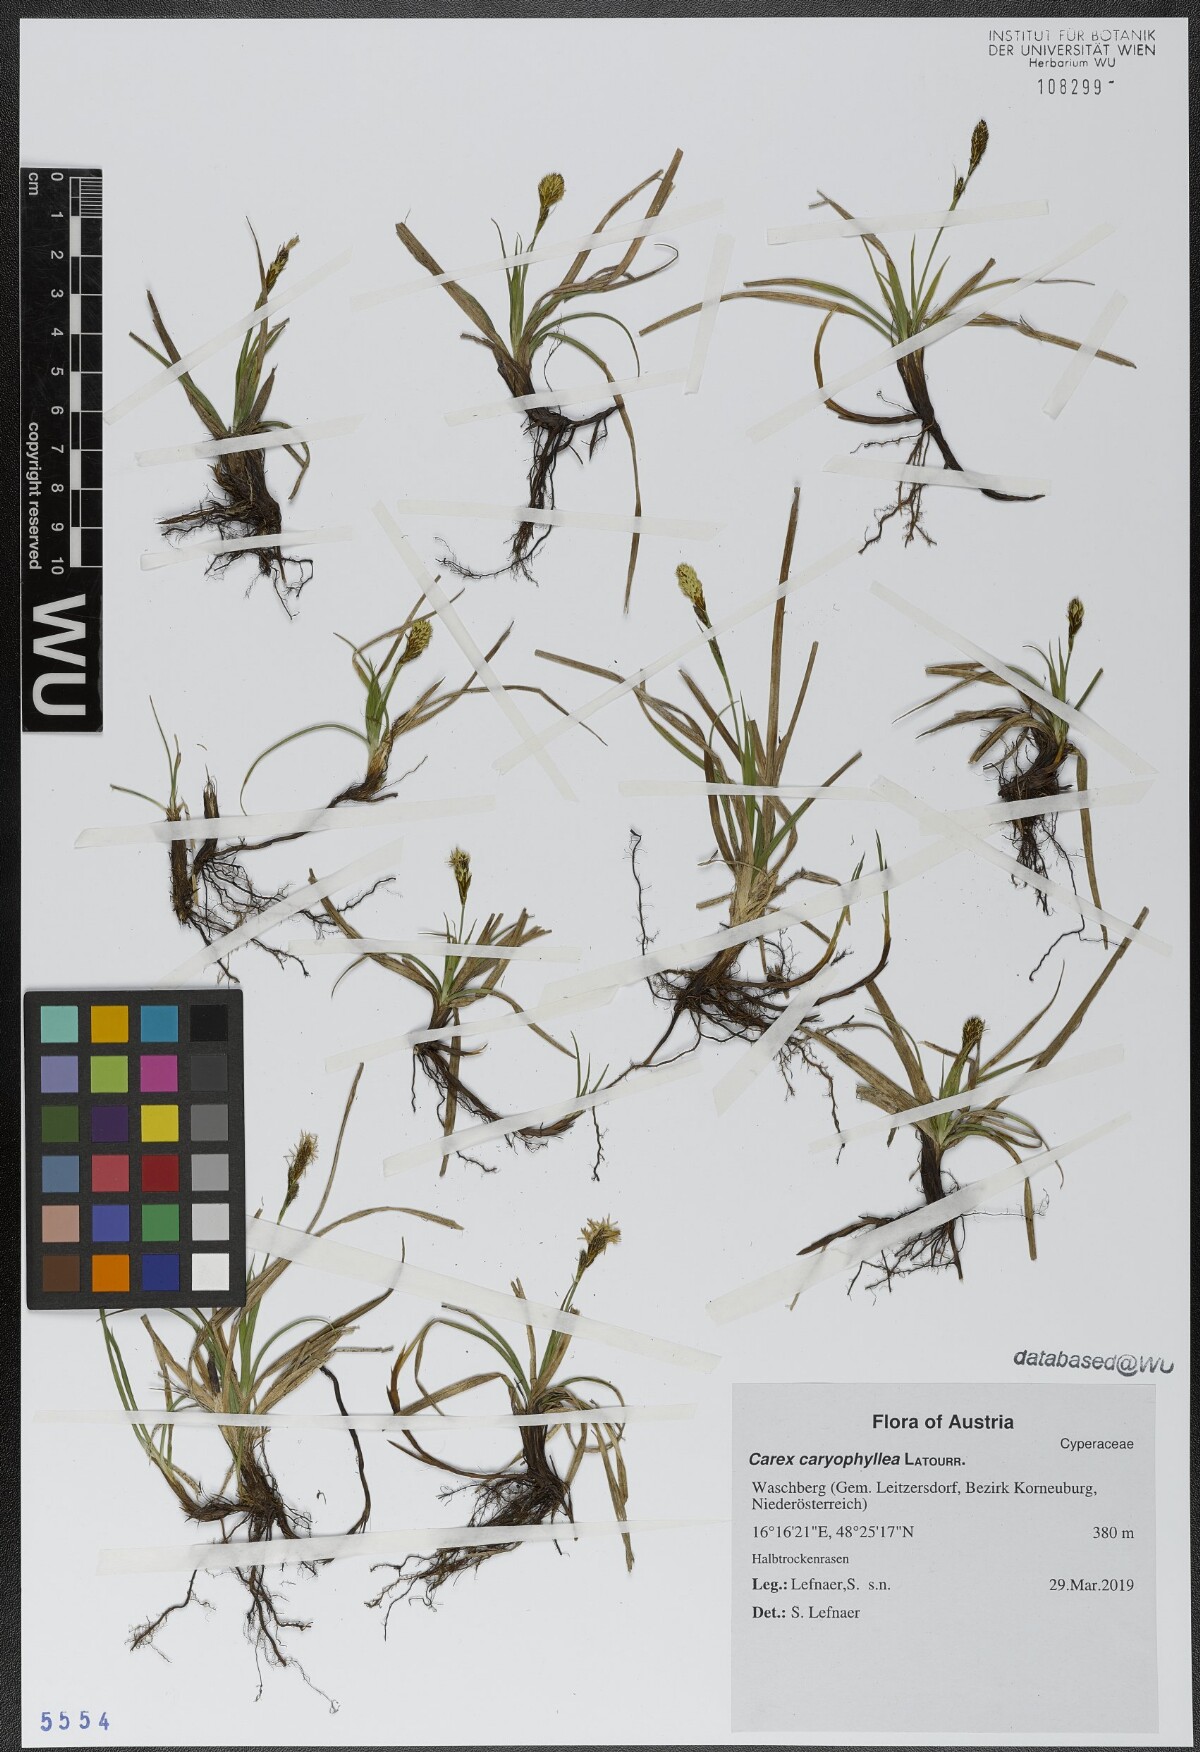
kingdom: Plantae
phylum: Tracheophyta
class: Liliopsida
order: Poales
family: Cyperaceae
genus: Carex
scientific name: Carex caryophyllea
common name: Spring sedge
